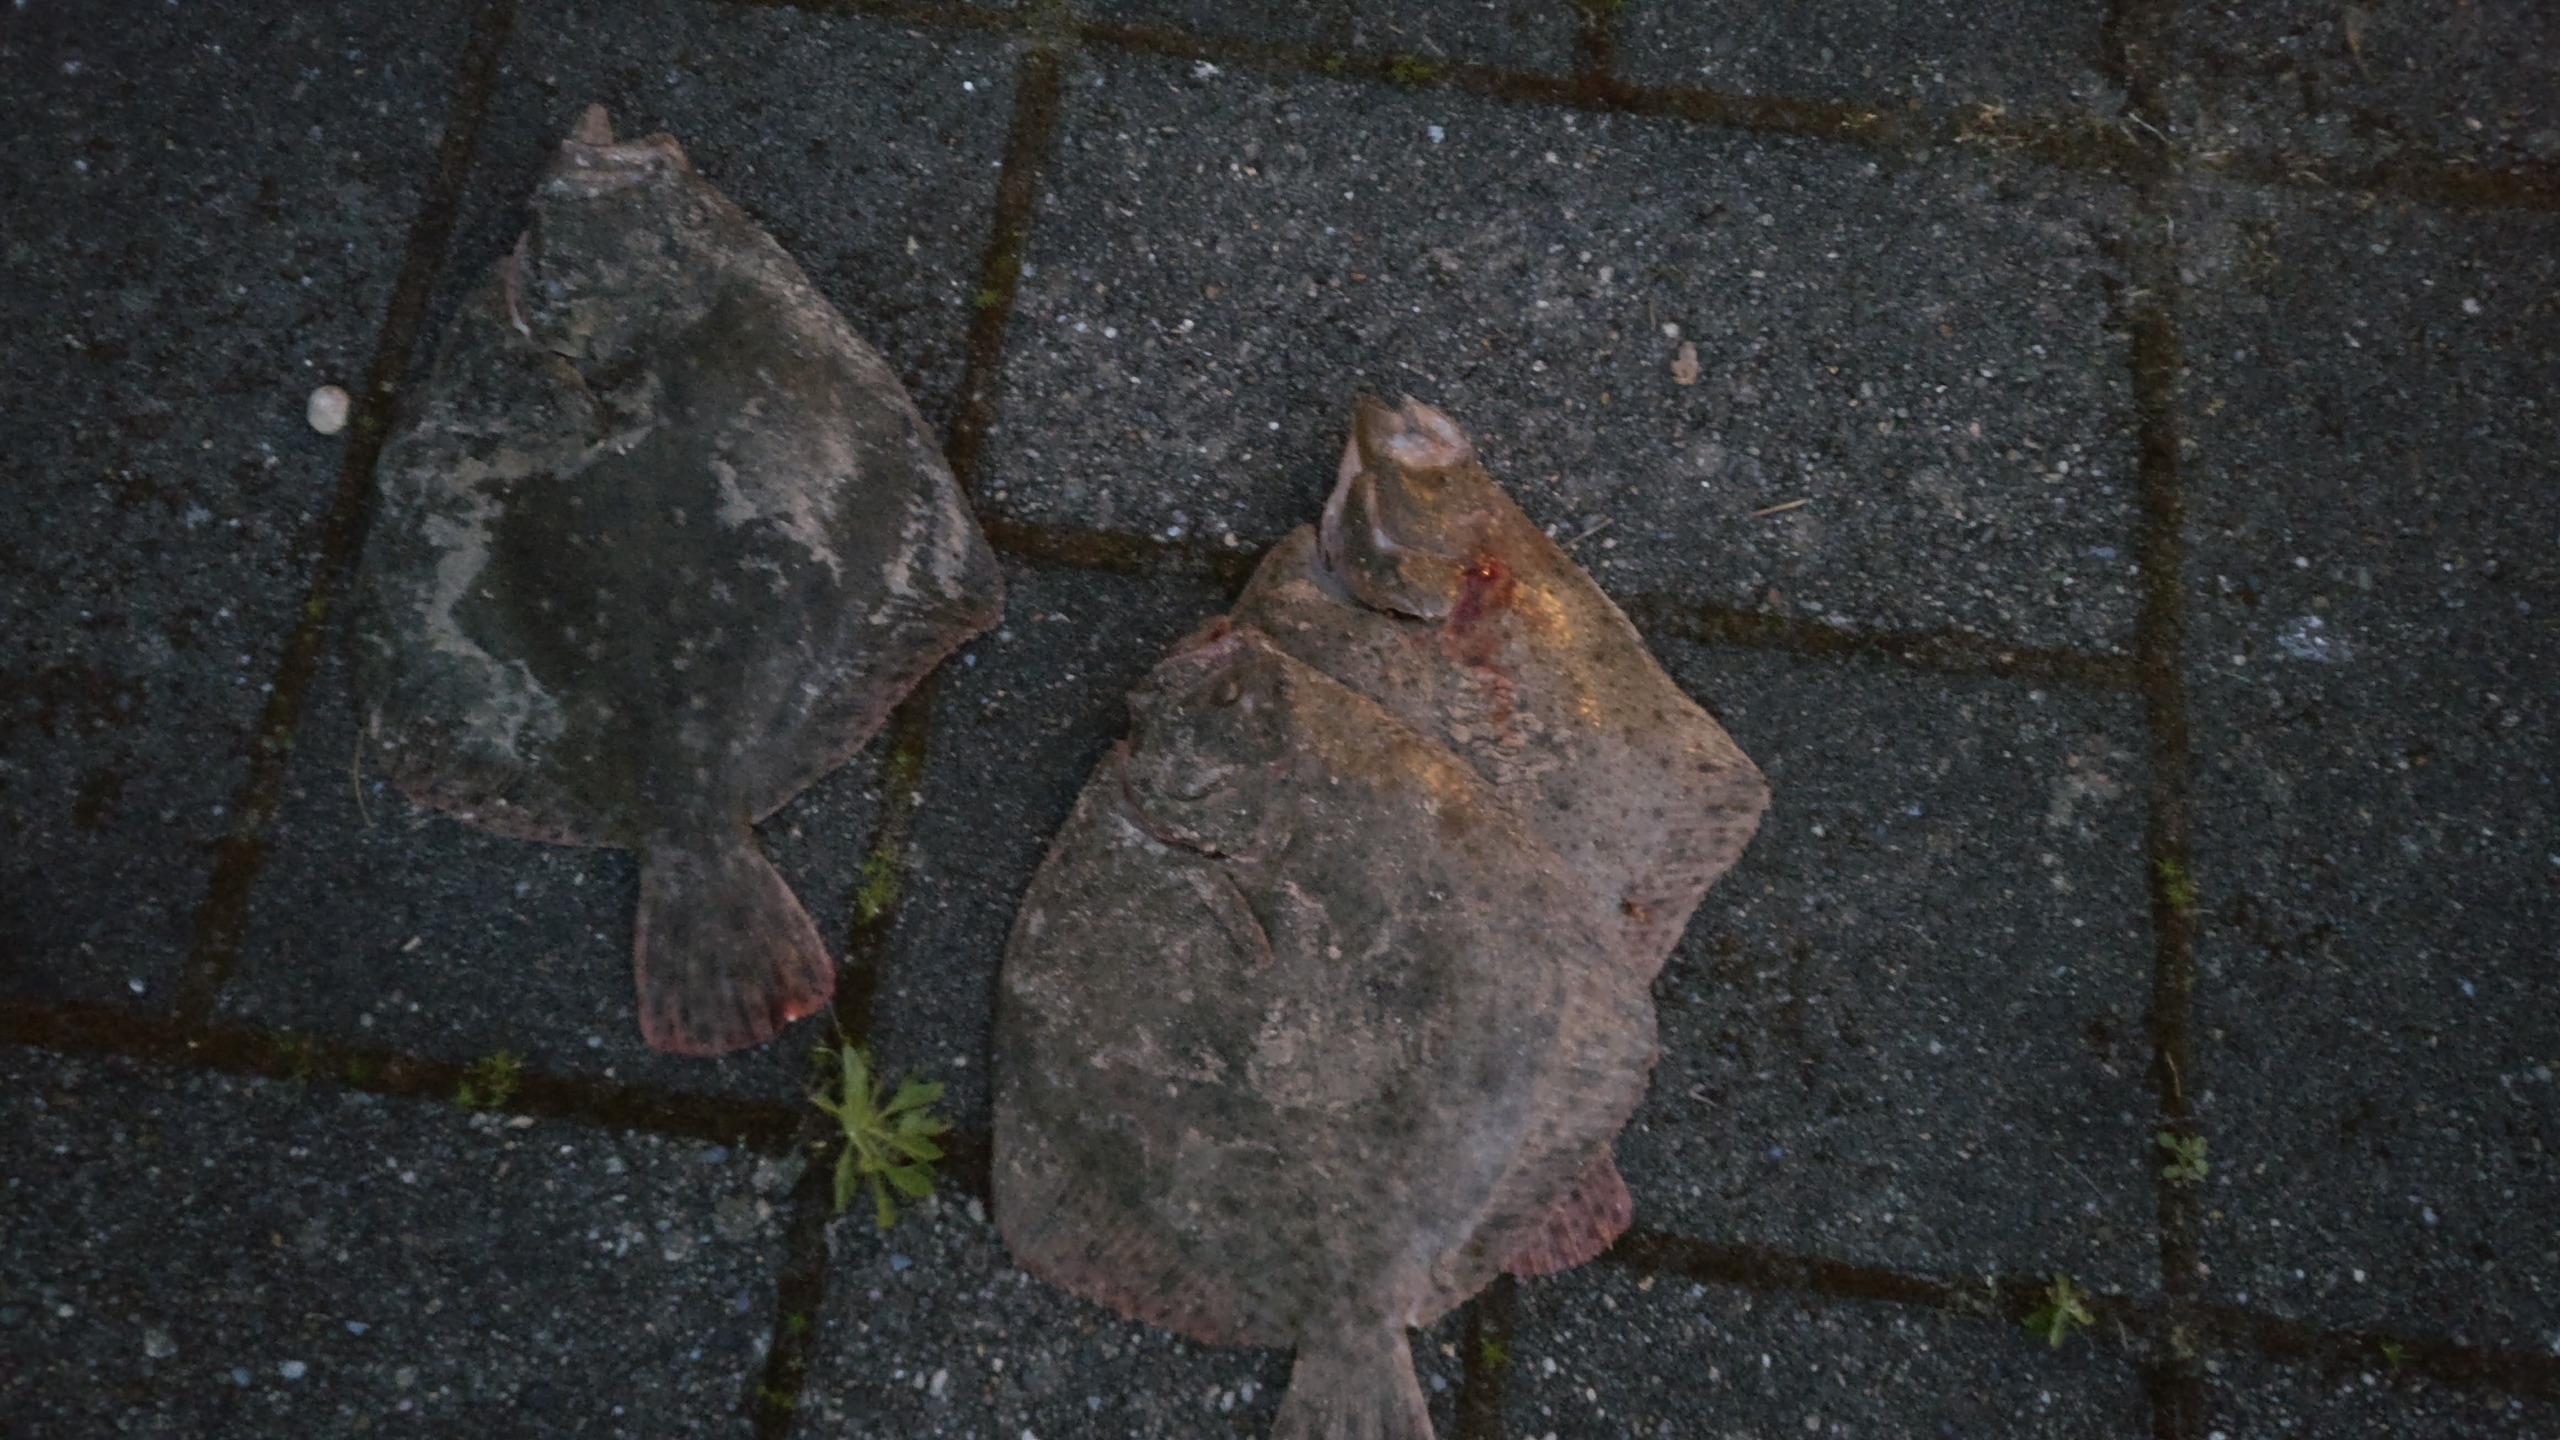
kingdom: Animalia
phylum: Chordata
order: Pleuronectiformes
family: Scophthalmidae
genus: Scophthalmus
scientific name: Scophthalmus maximus
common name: Pighvarre
